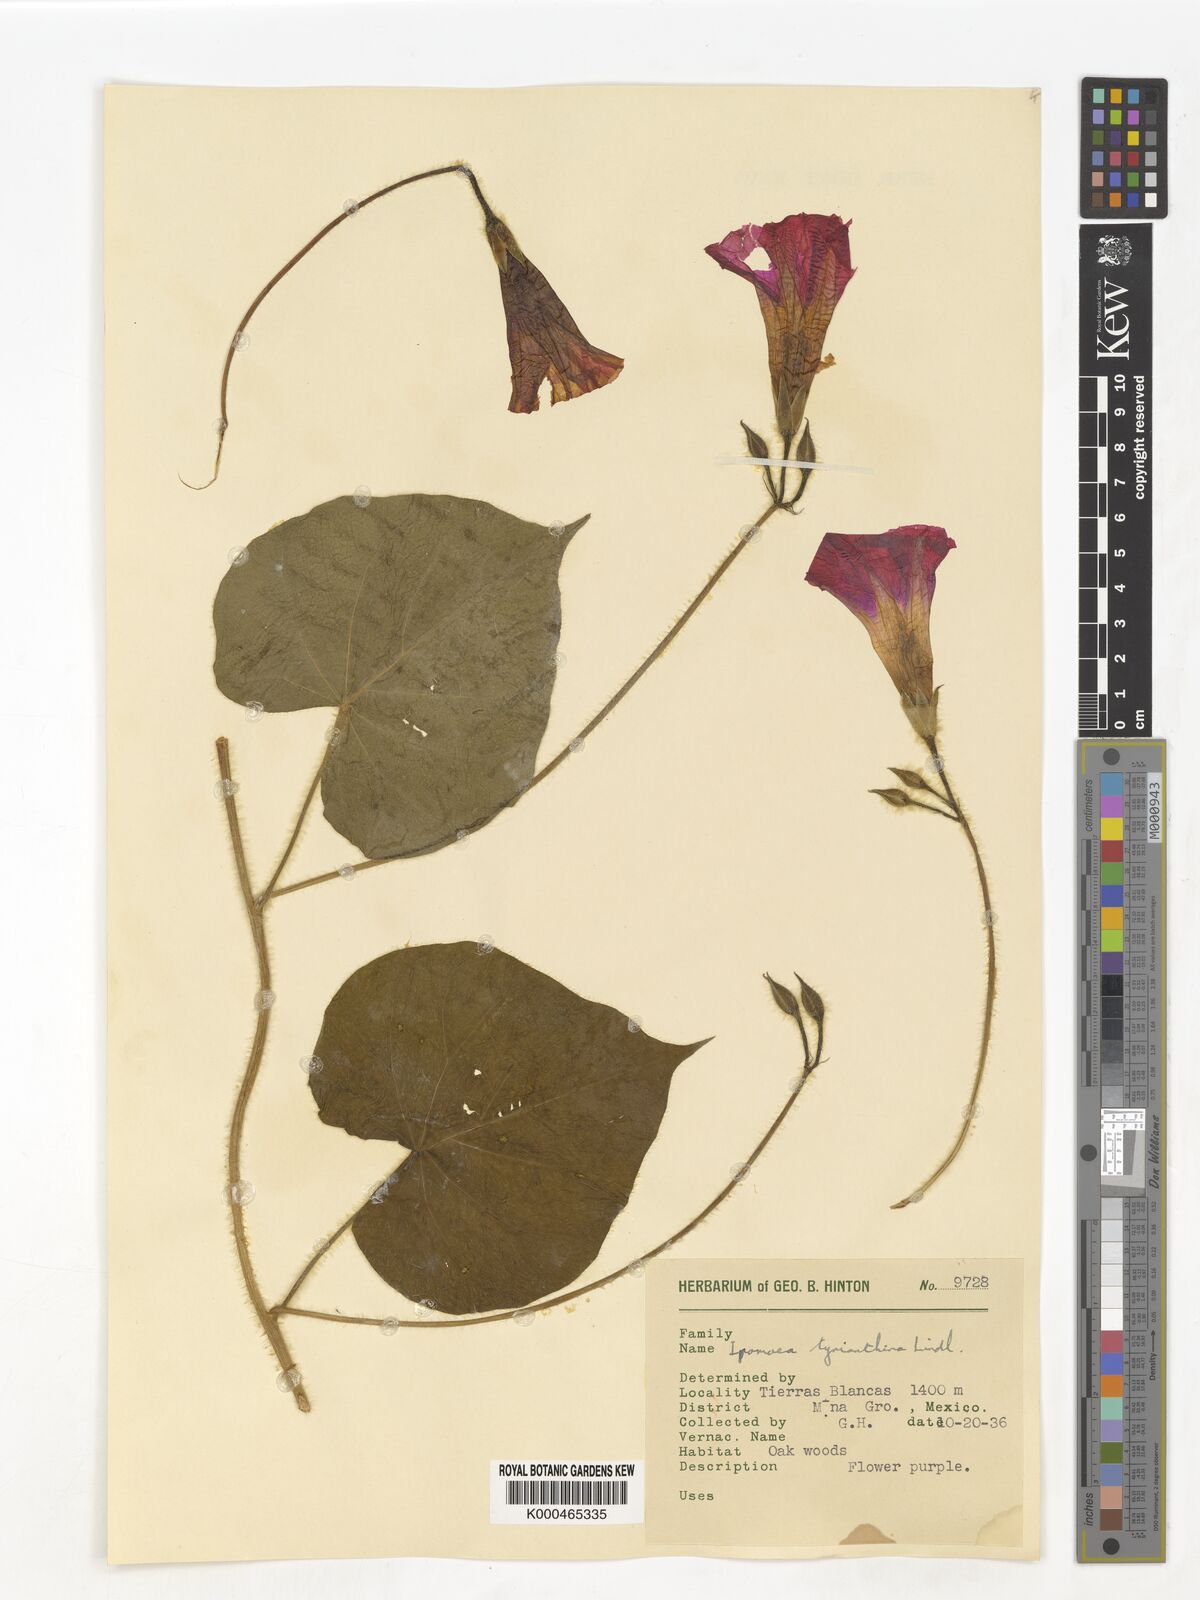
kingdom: Plantae
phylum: Tracheophyta
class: Magnoliopsida
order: Solanales
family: Convolvulaceae
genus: Ipomoea
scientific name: Ipomoea orizabensis
